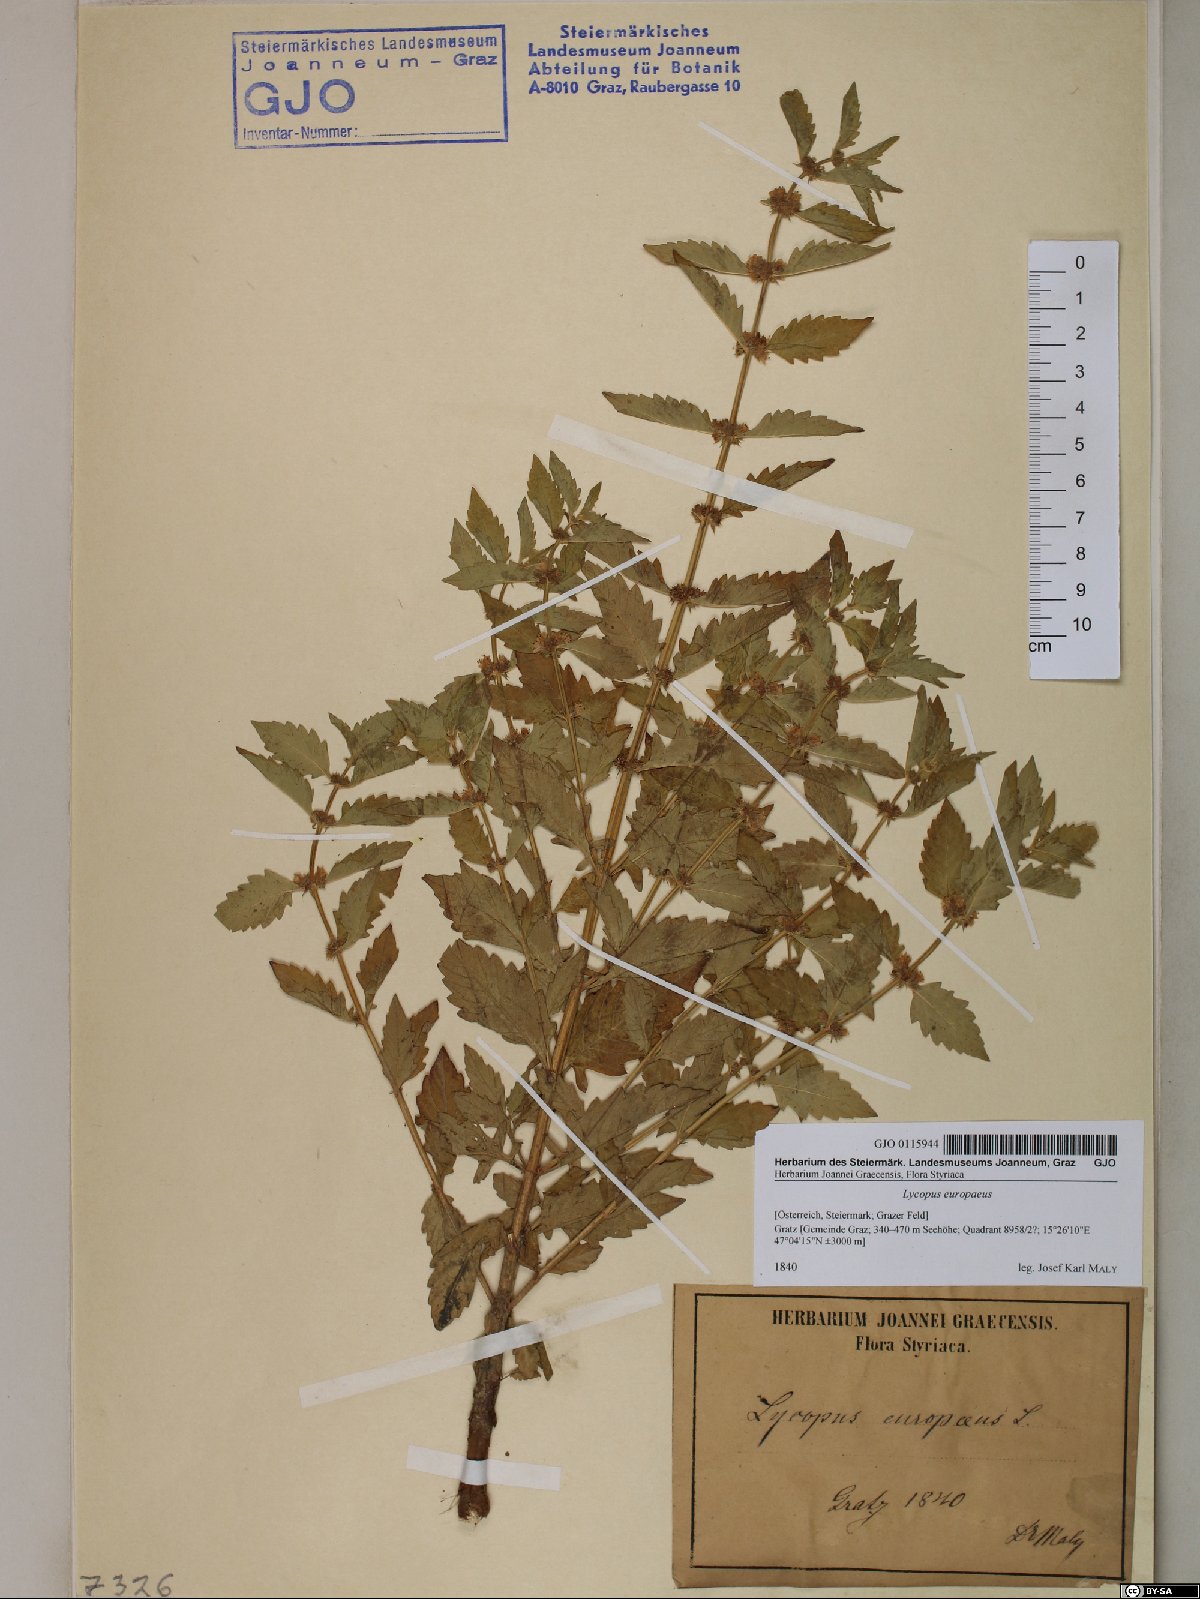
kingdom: Plantae
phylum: Tracheophyta
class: Magnoliopsida
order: Lamiales
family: Lamiaceae
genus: Lycopus
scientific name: Lycopus europaeus
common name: European bugleweed
